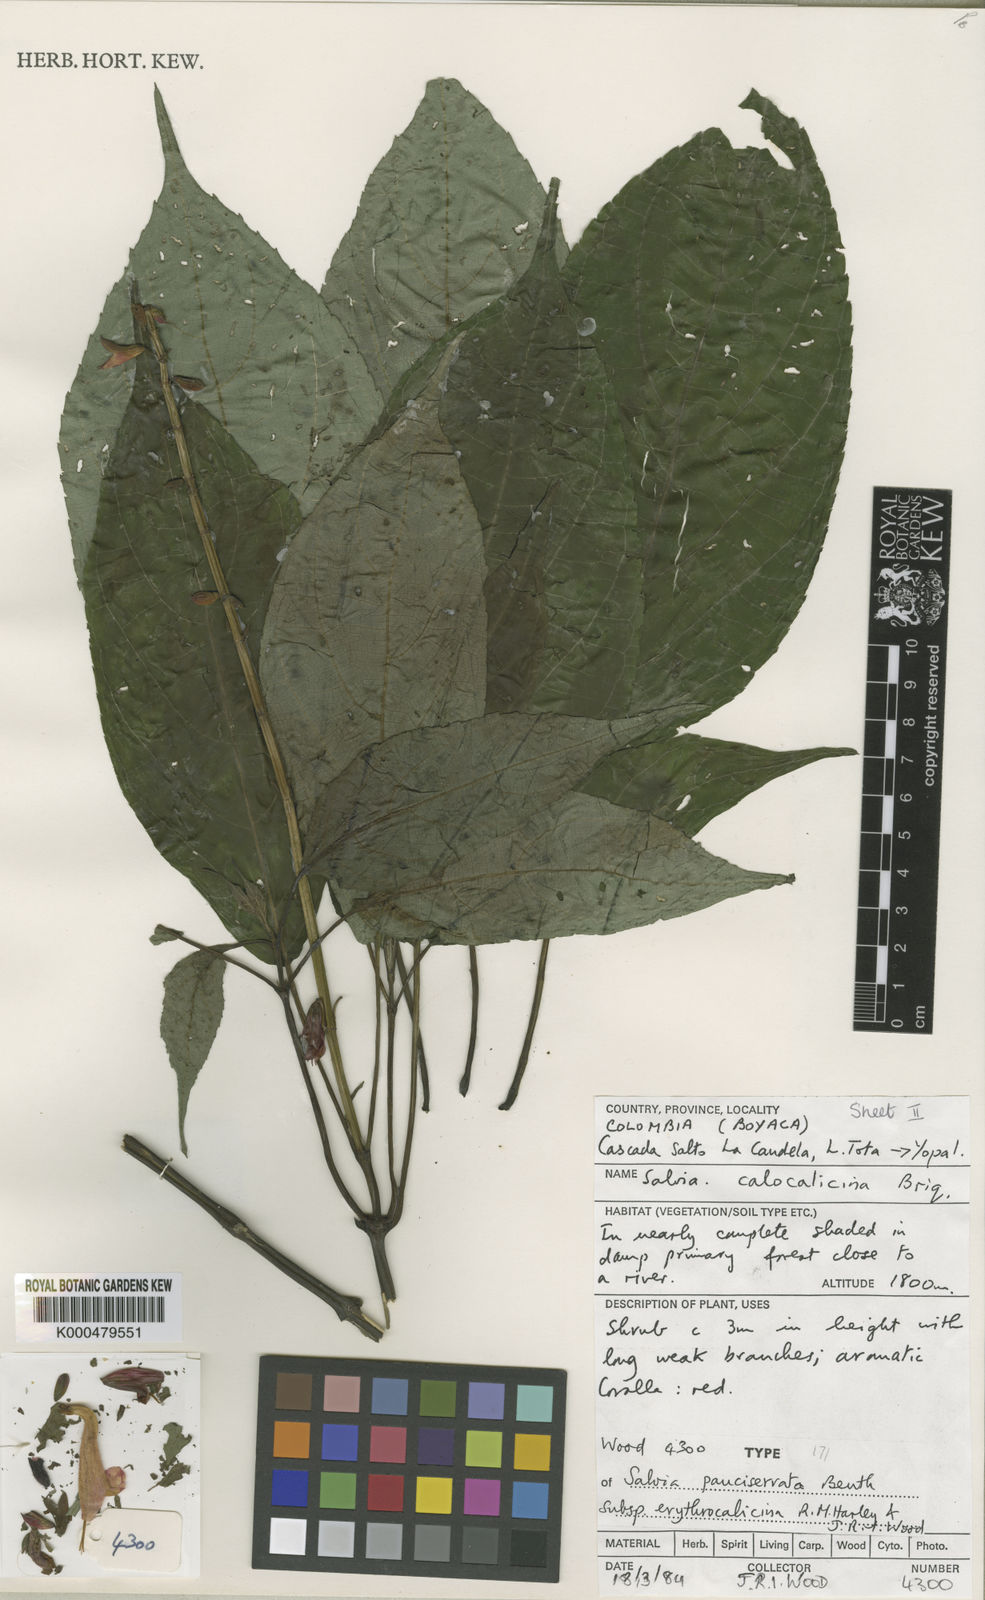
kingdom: Plantae
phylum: Tracheophyta
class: Magnoliopsida
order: Lamiales
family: Lamiaceae
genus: Salvia
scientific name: Salvia pauciserrata
